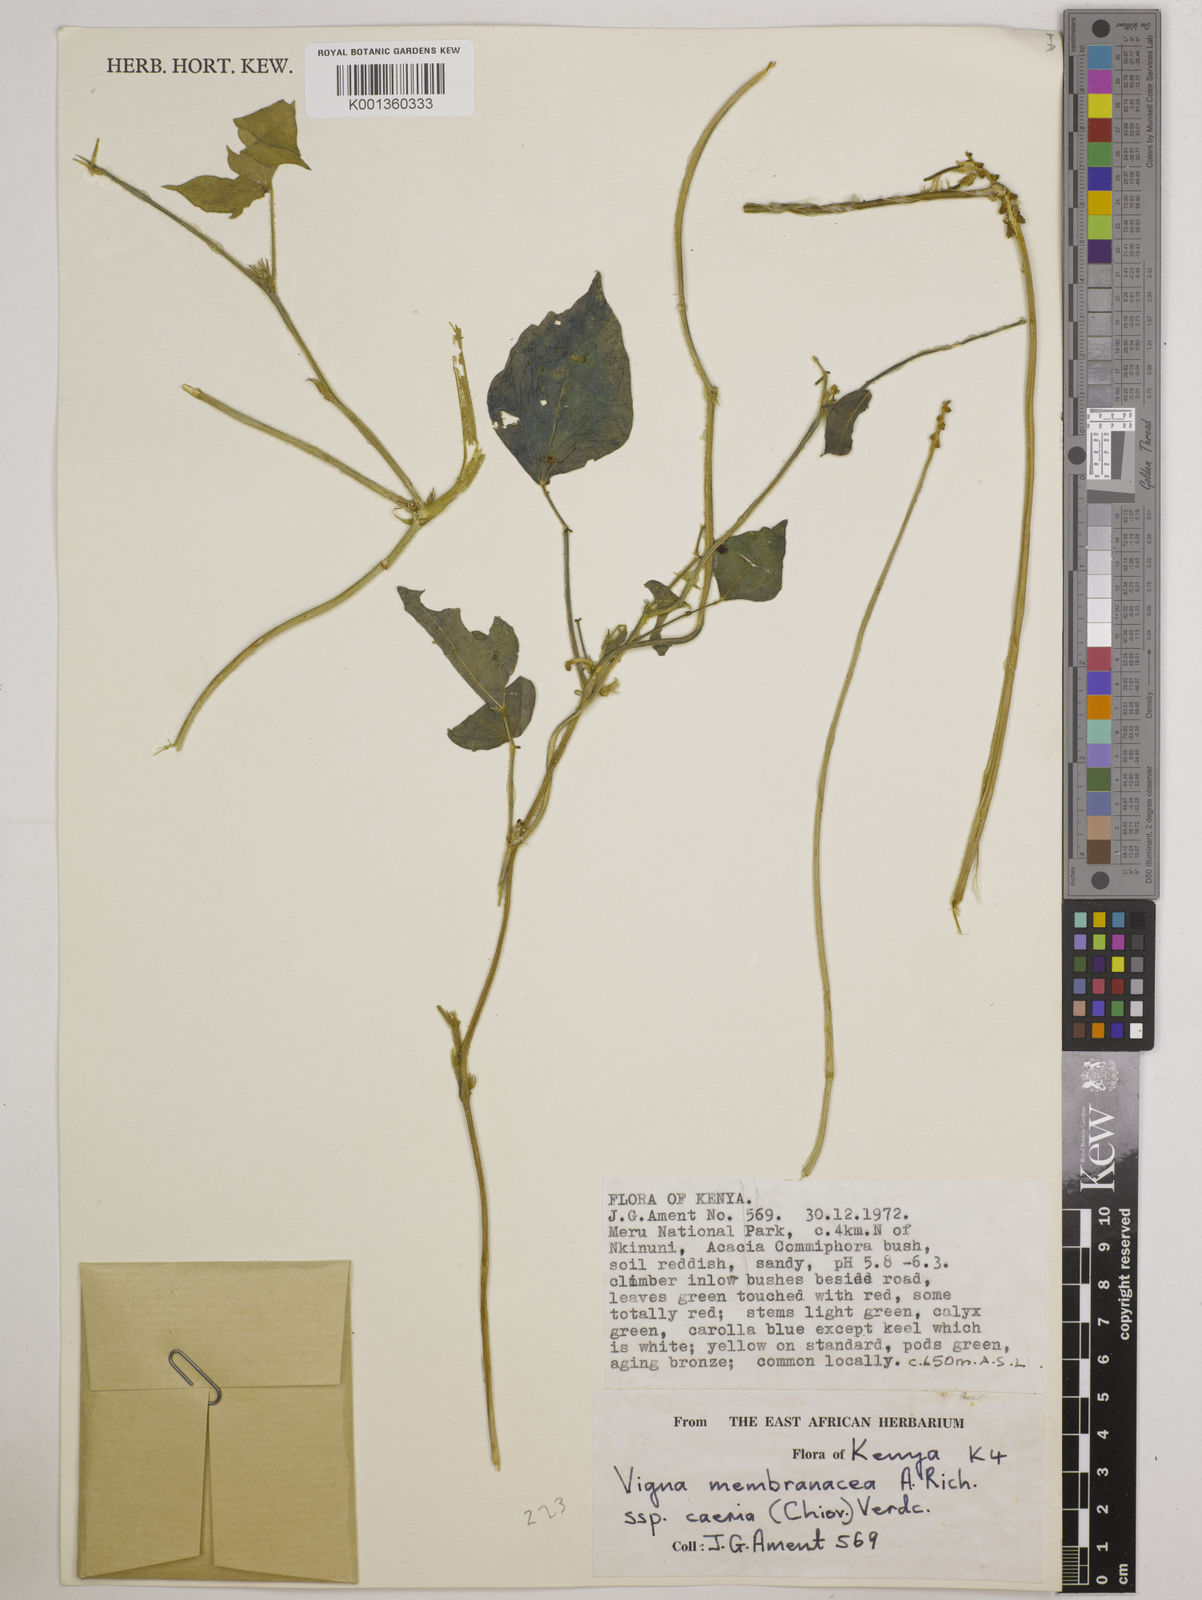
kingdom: Plantae
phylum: Tracheophyta
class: Magnoliopsida
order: Fabales
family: Fabaceae
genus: Vigna
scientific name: Vigna
